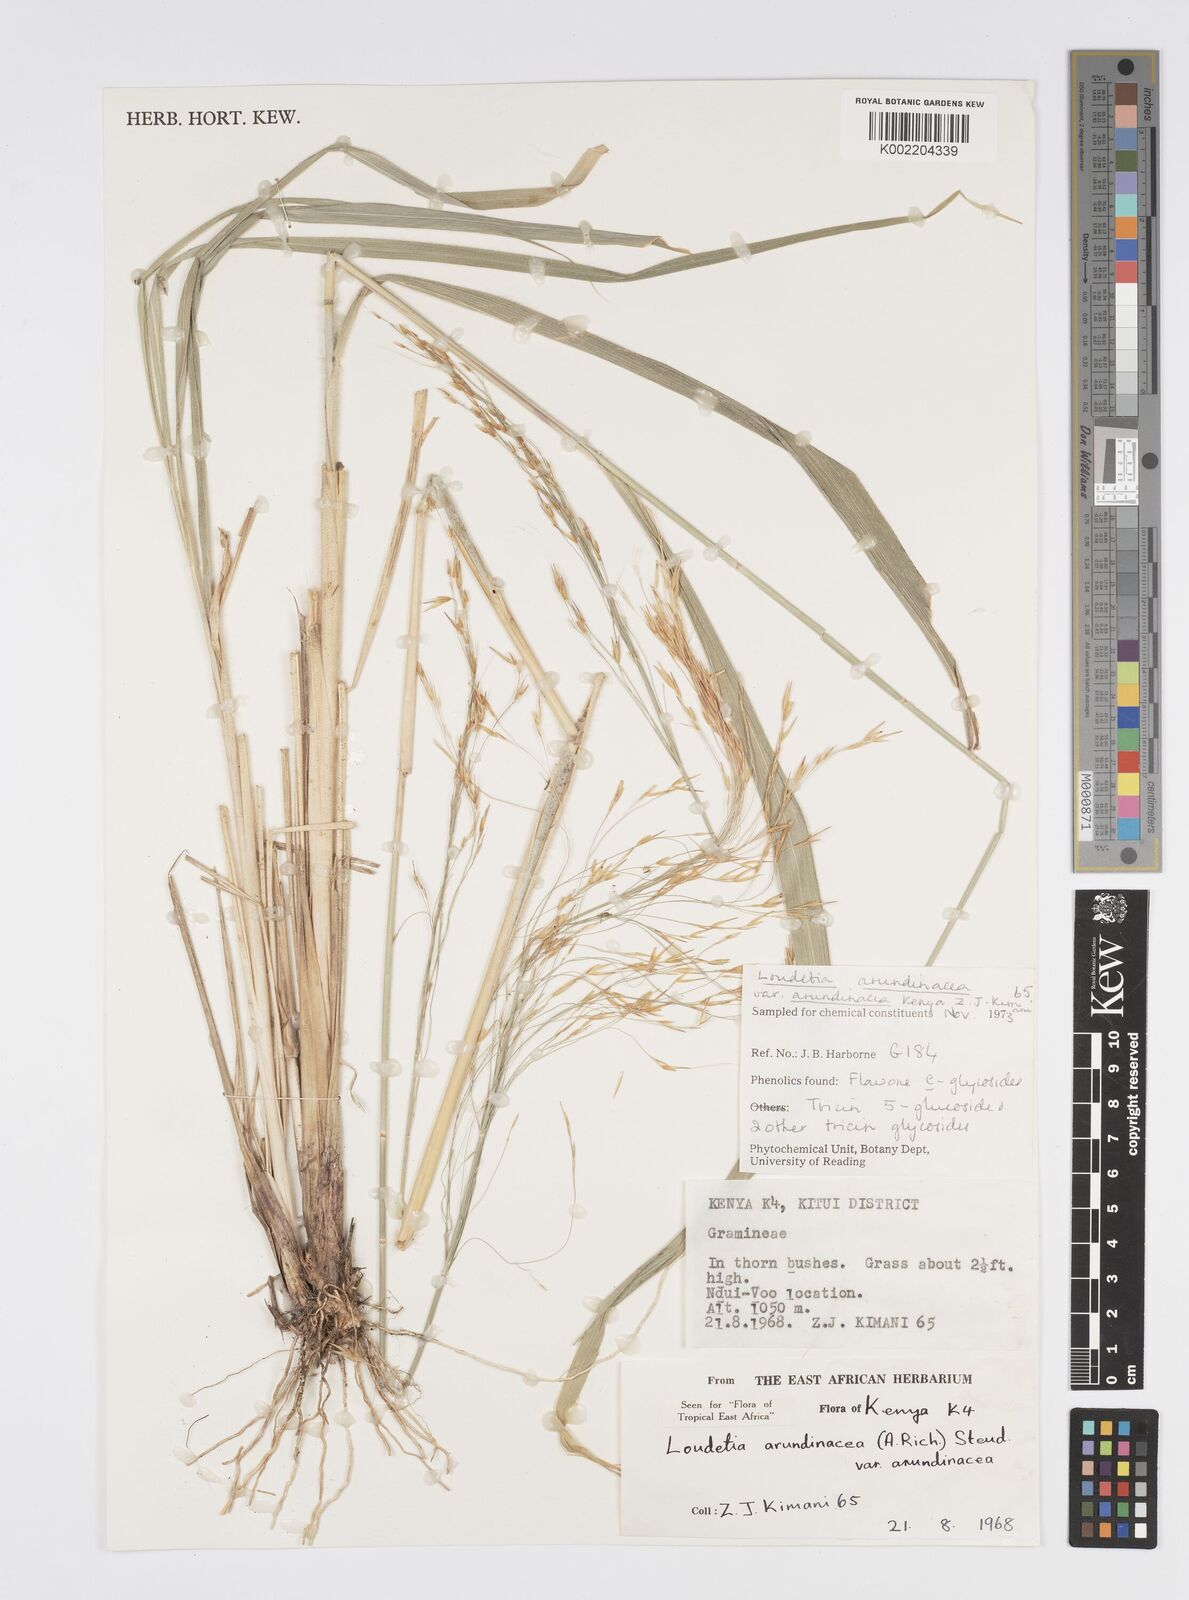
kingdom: Plantae
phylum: Tracheophyta
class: Liliopsida
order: Poales
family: Poaceae
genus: Loudetia
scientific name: Loudetia arundinacea
